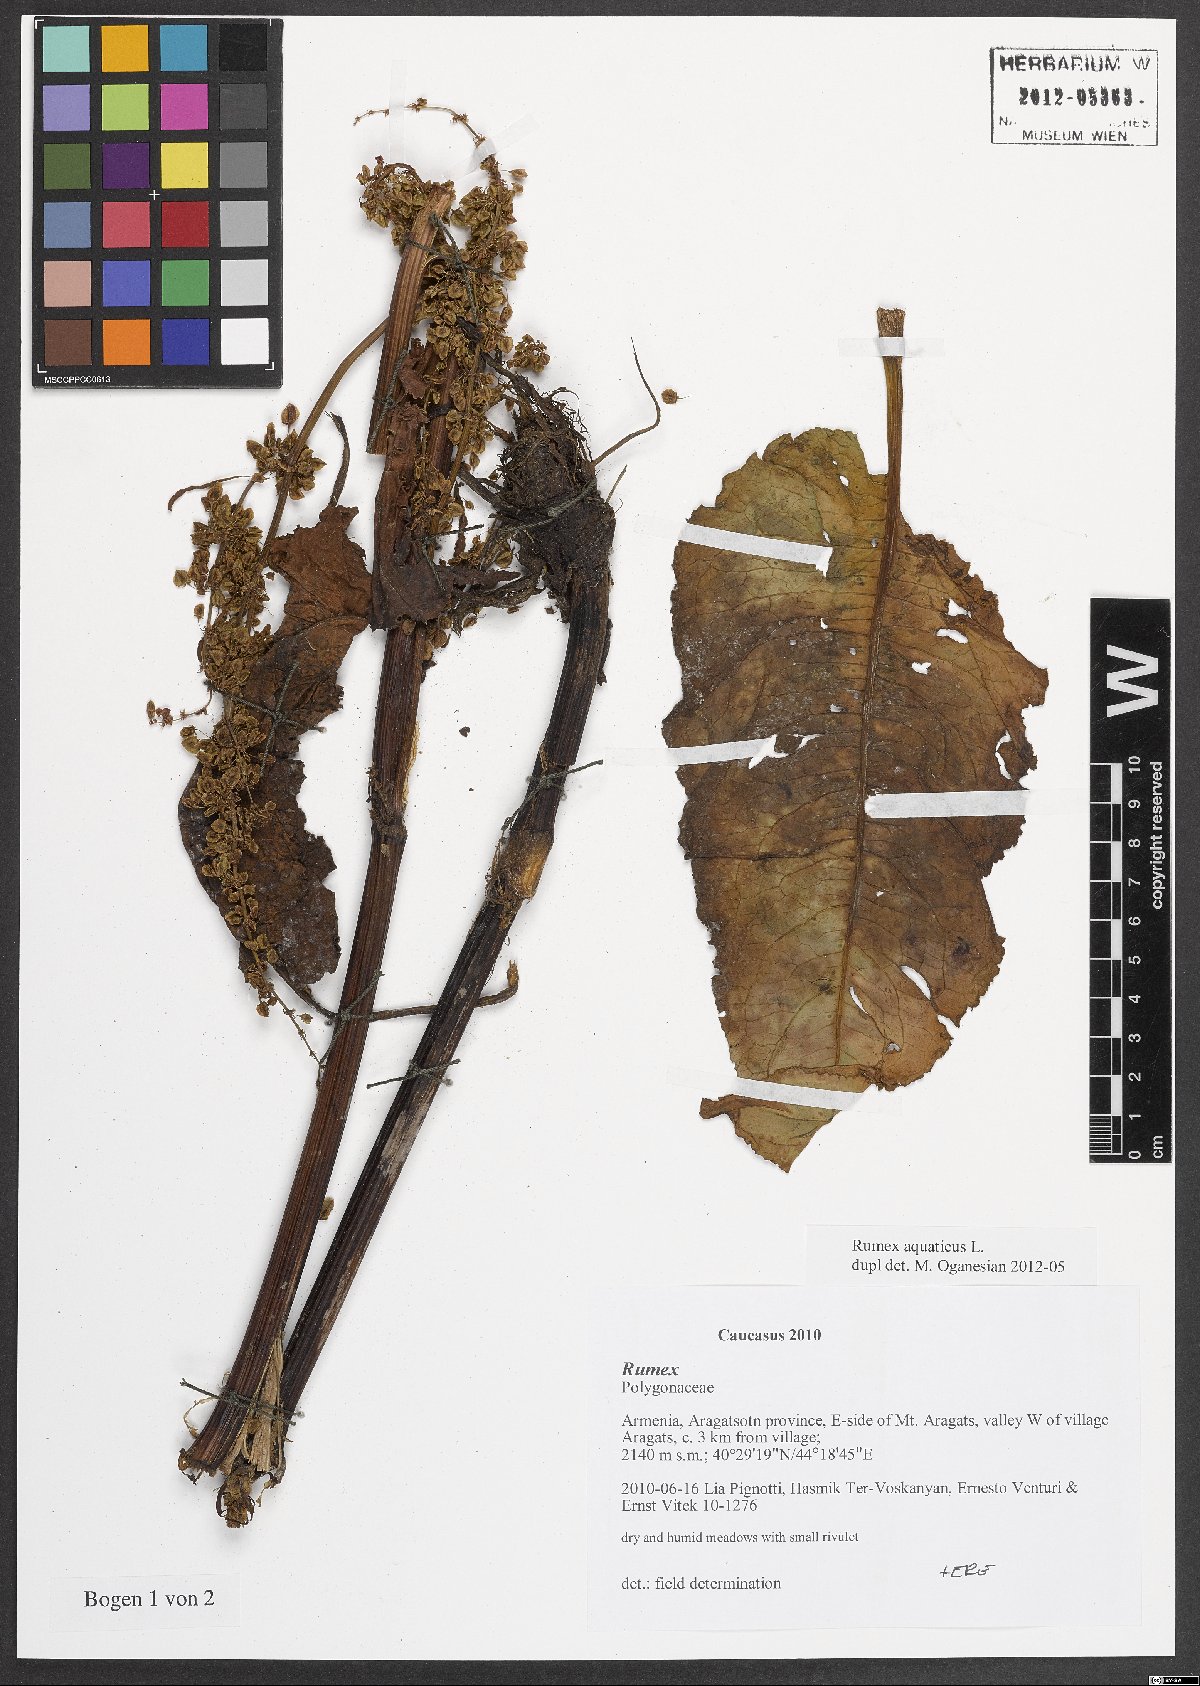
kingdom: Plantae
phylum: Tracheophyta
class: Magnoliopsida
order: Caryophyllales
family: Polygonaceae
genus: Rumex
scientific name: Rumex aquaticus
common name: Scottish dock
